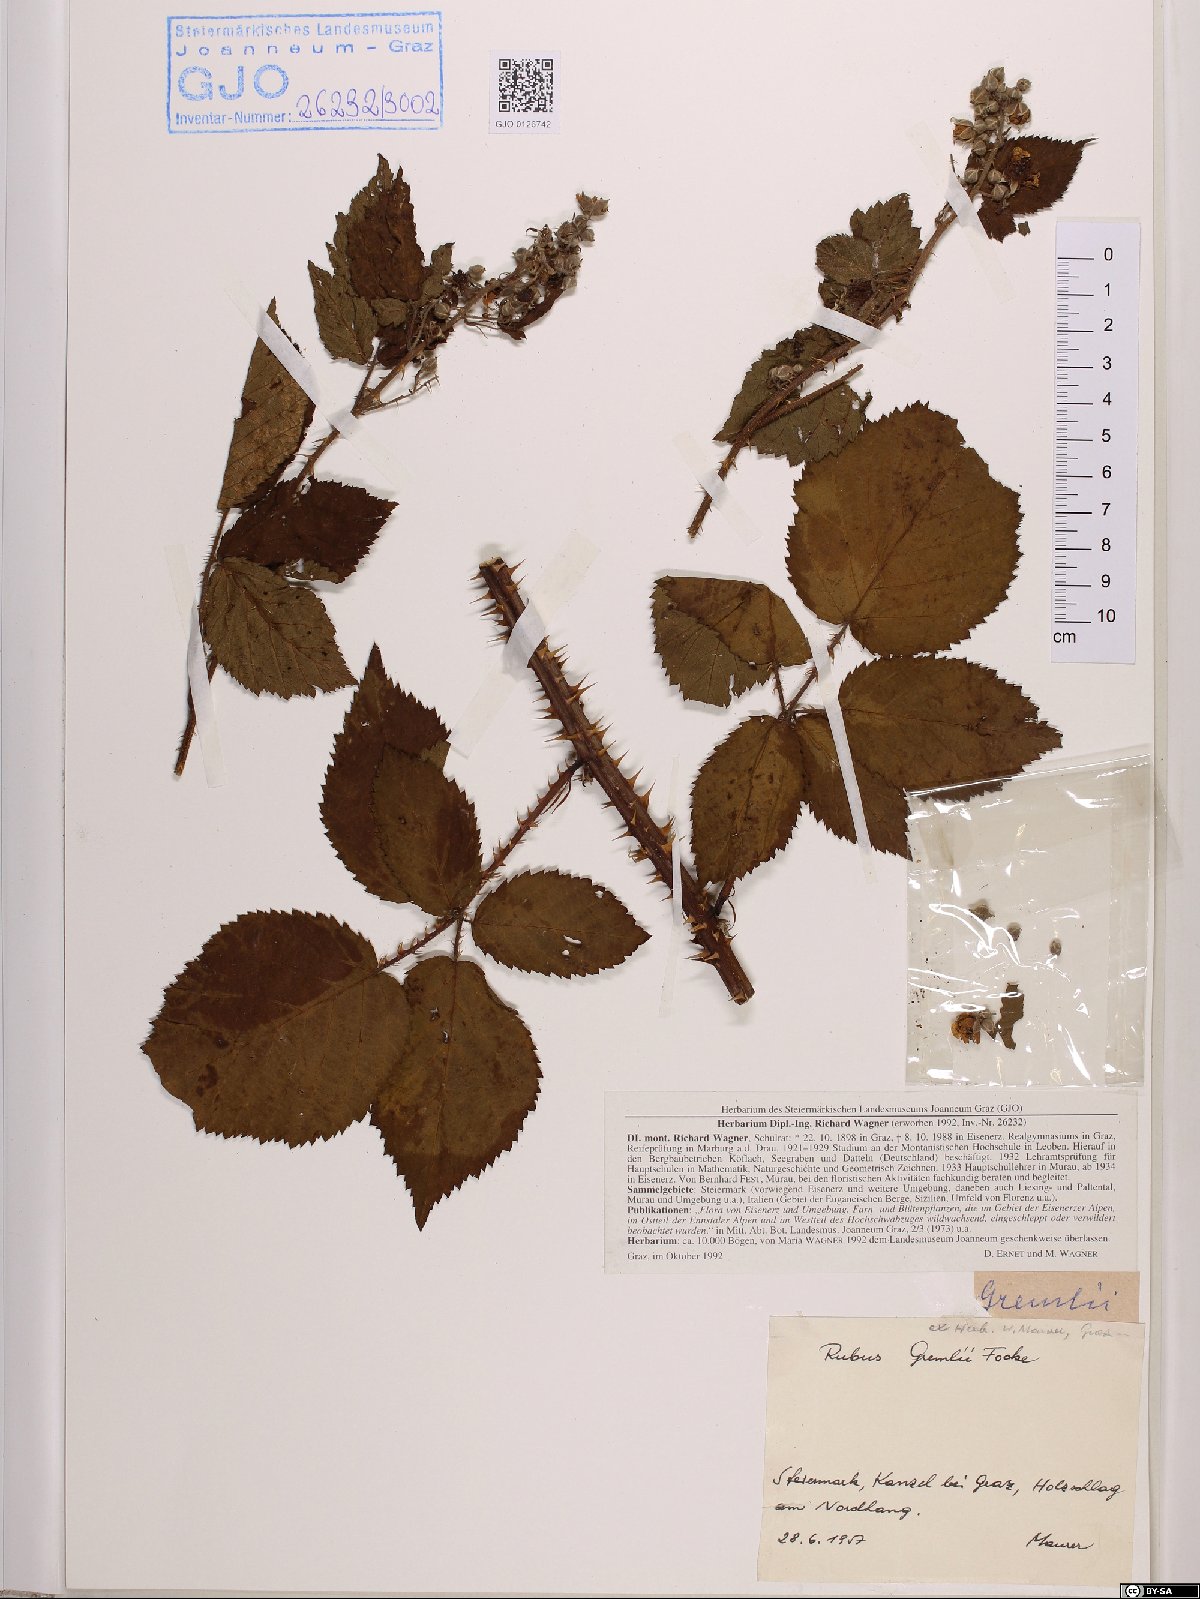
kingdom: Plantae
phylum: Tracheophyta
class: Magnoliopsida
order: Rosales
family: Rosaceae
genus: Rubus
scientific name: Rubus gremlii
